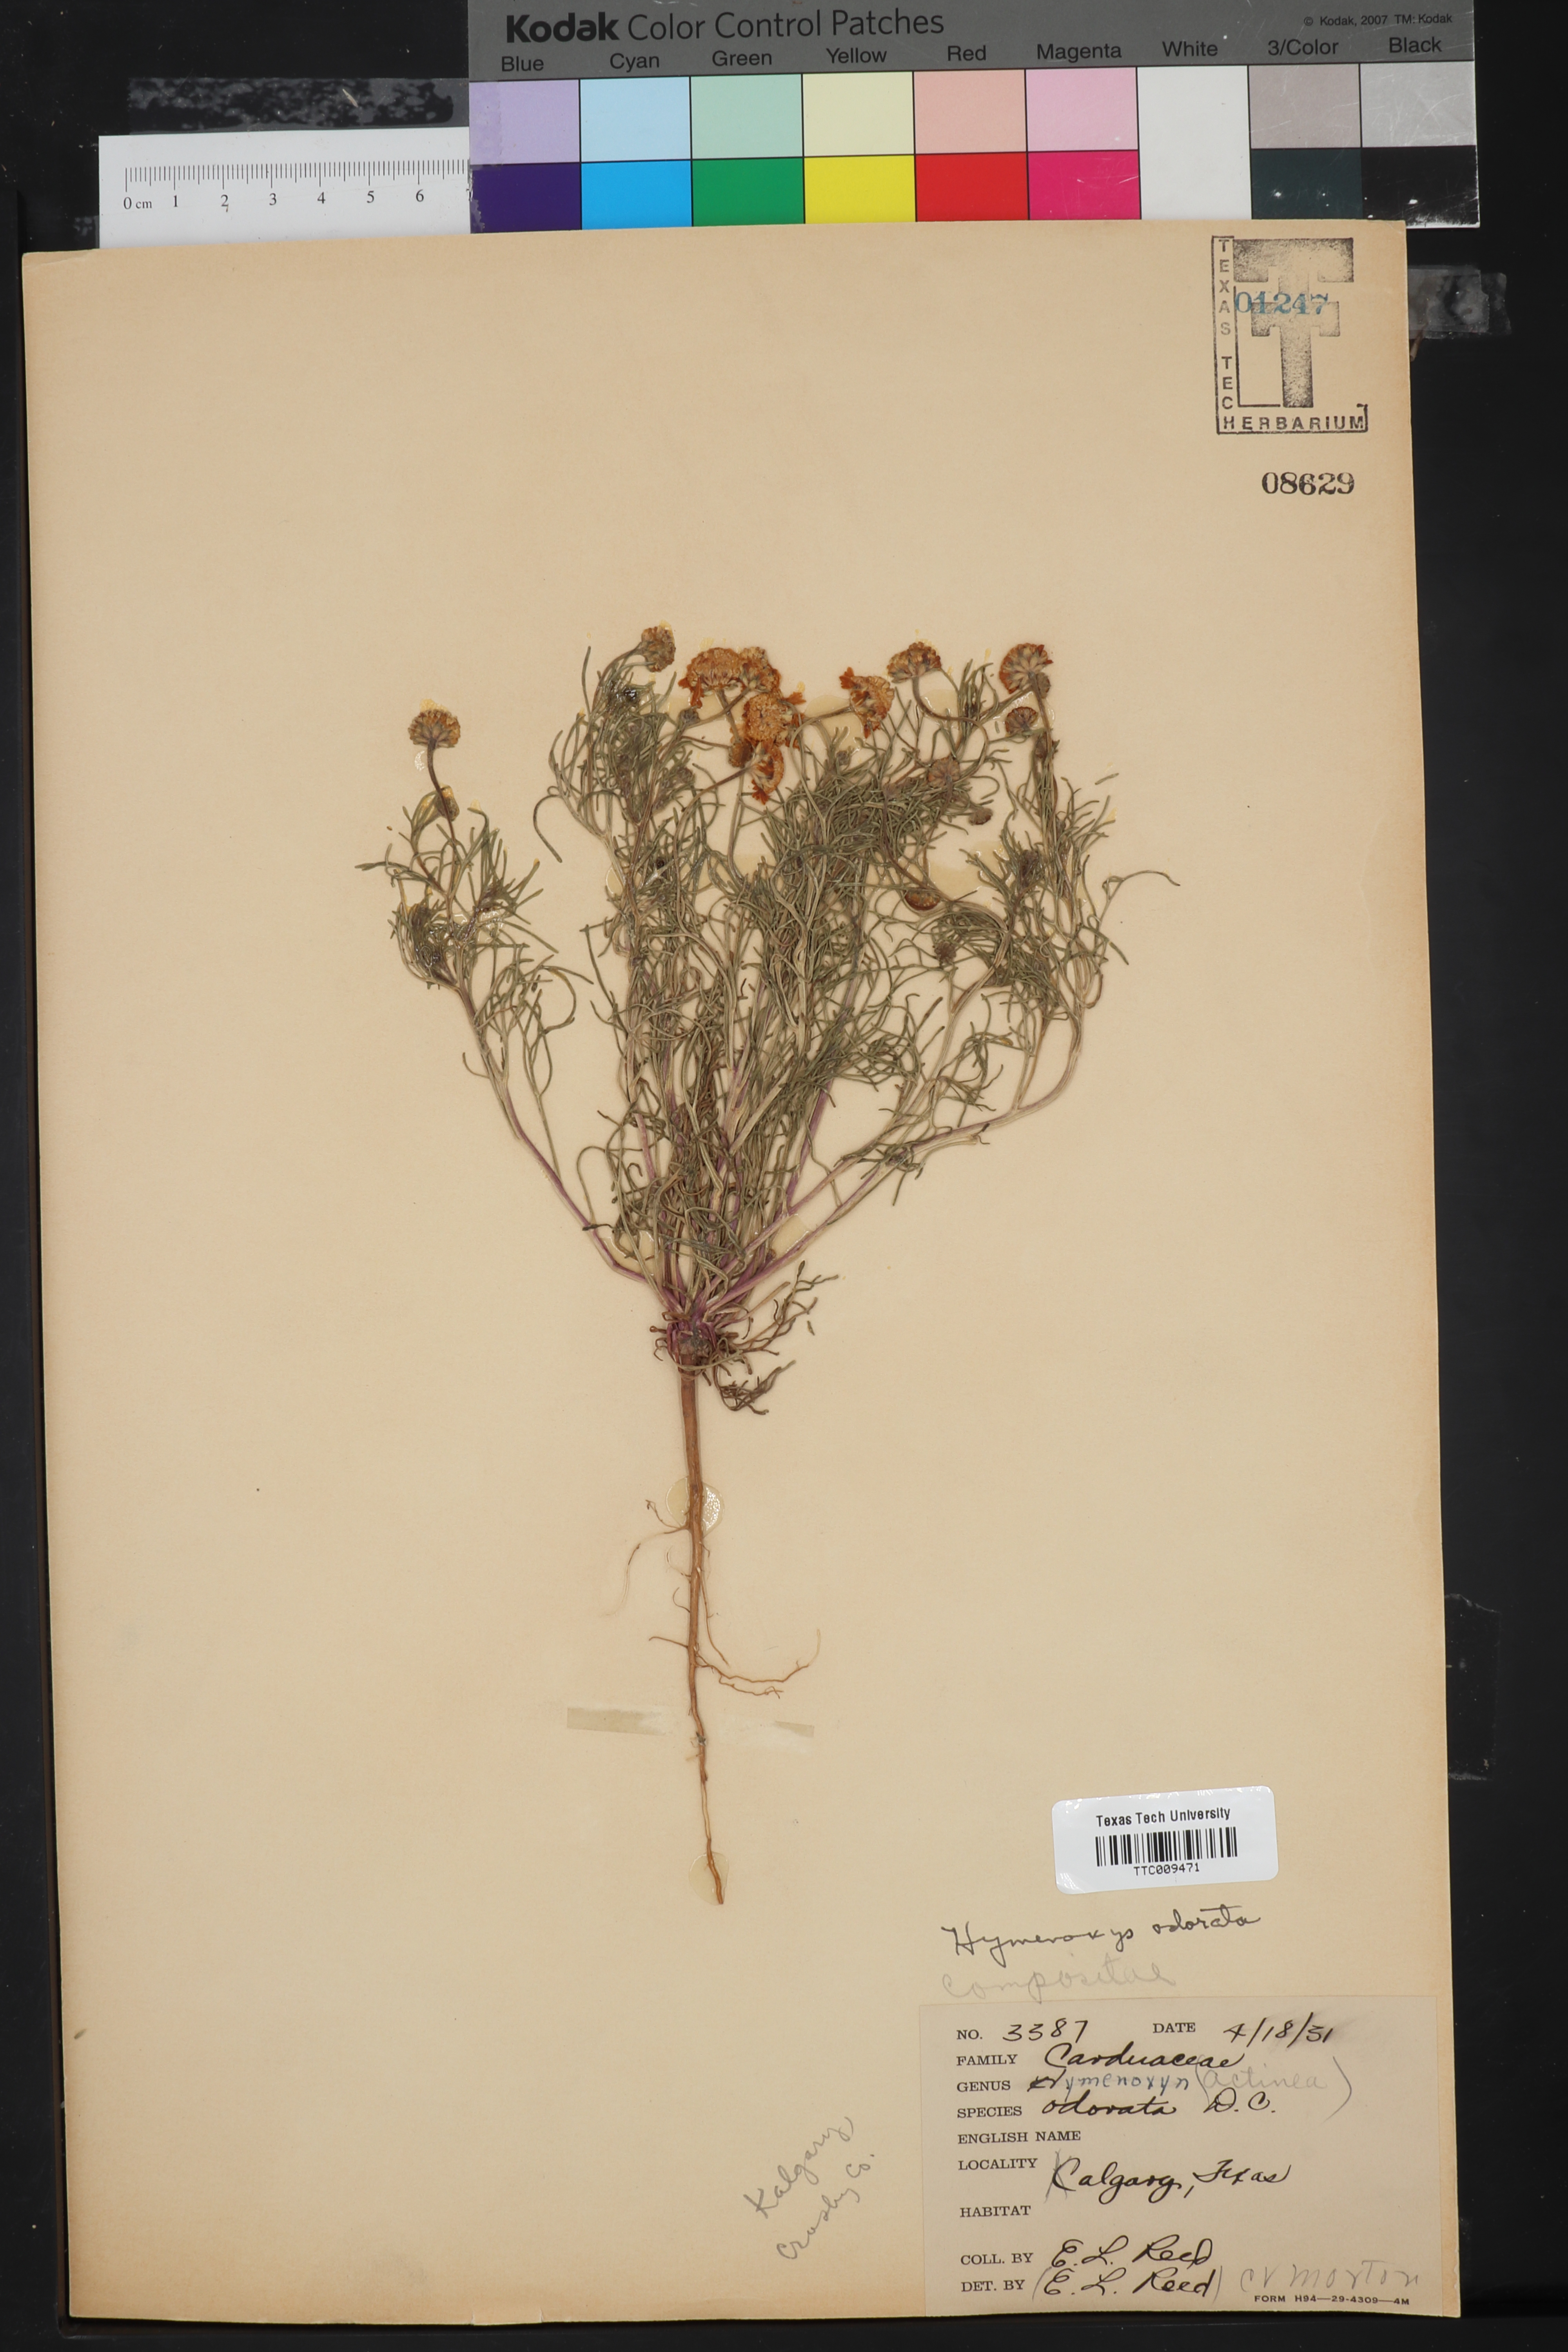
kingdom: Plantae
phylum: Tracheophyta
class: Magnoliopsida
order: Asterales
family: Asteraceae
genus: Hymenoxys
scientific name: Hymenoxys odorata
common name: Bitter rubberweed
